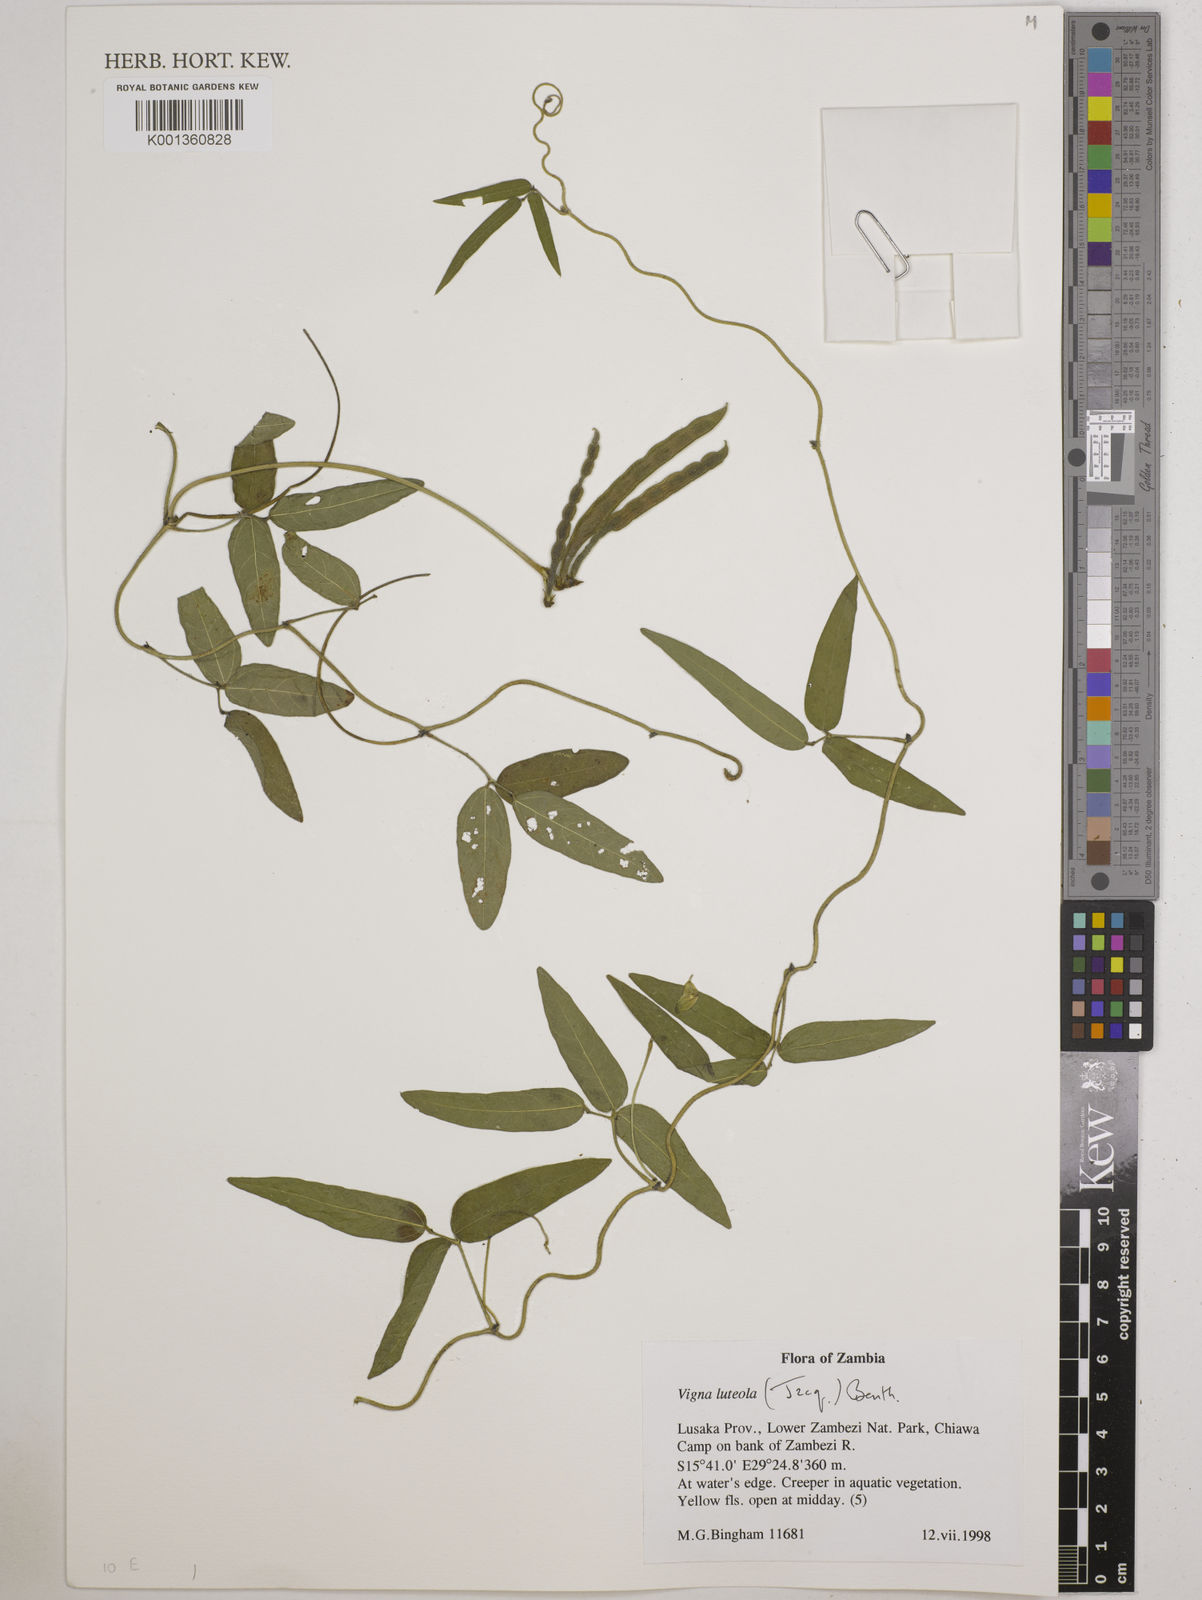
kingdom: Plantae
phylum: Tracheophyta
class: Magnoliopsida
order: Fabales
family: Fabaceae
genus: Vigna
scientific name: Vigna luteola
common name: Hairypod cowpea
